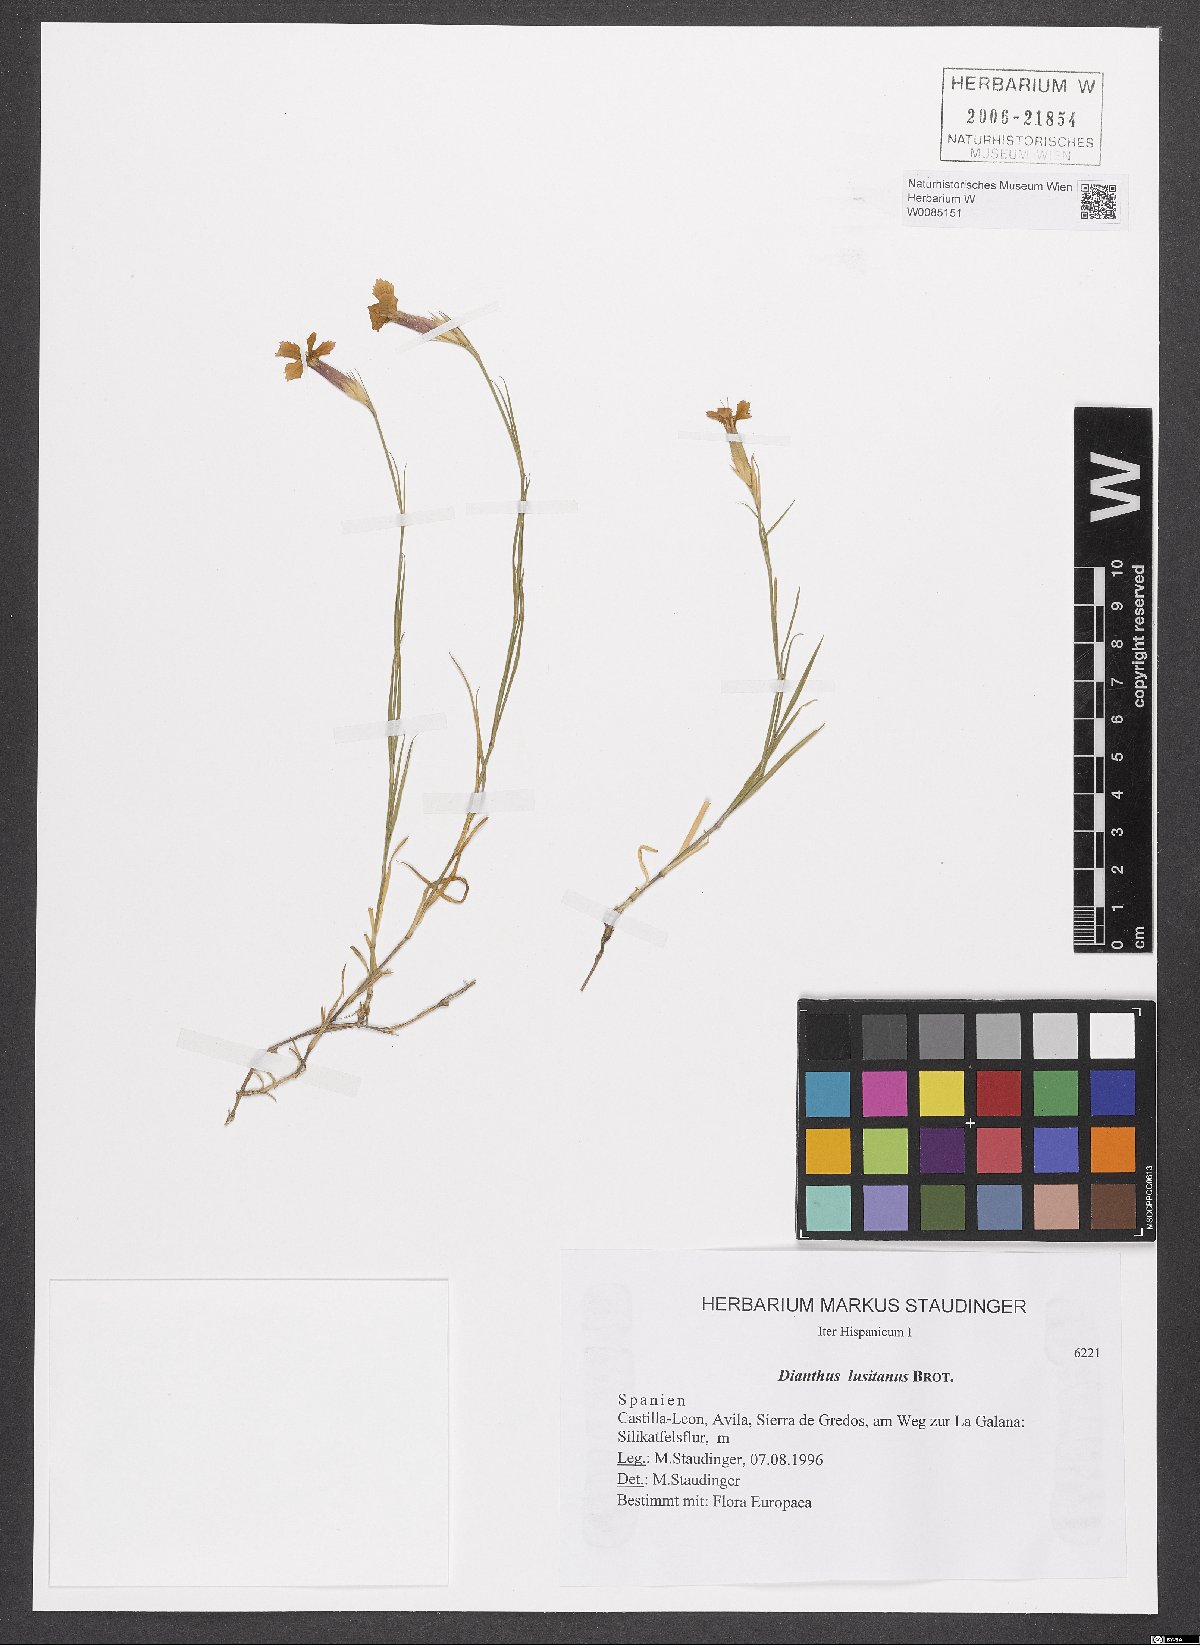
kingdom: Plantae
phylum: Tracheophyta
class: Magnoliopsida
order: Caryophyllales
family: Caryophyllaceae
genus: Dianthus
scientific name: Dianthus lusitanus
